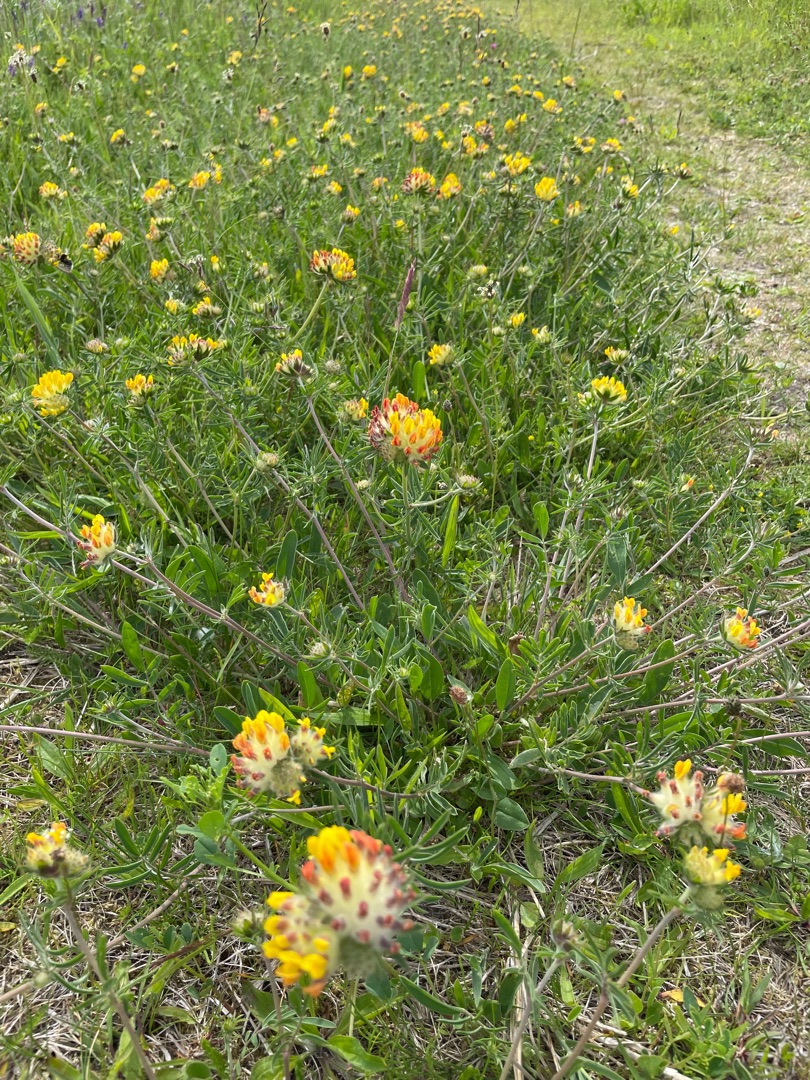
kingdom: Plantae
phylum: Tracheophyta
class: Magnoliopsida
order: Fabales
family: Fabaceae
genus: Anthyllis
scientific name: Anthyllis vulneraria
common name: Rundbælg
